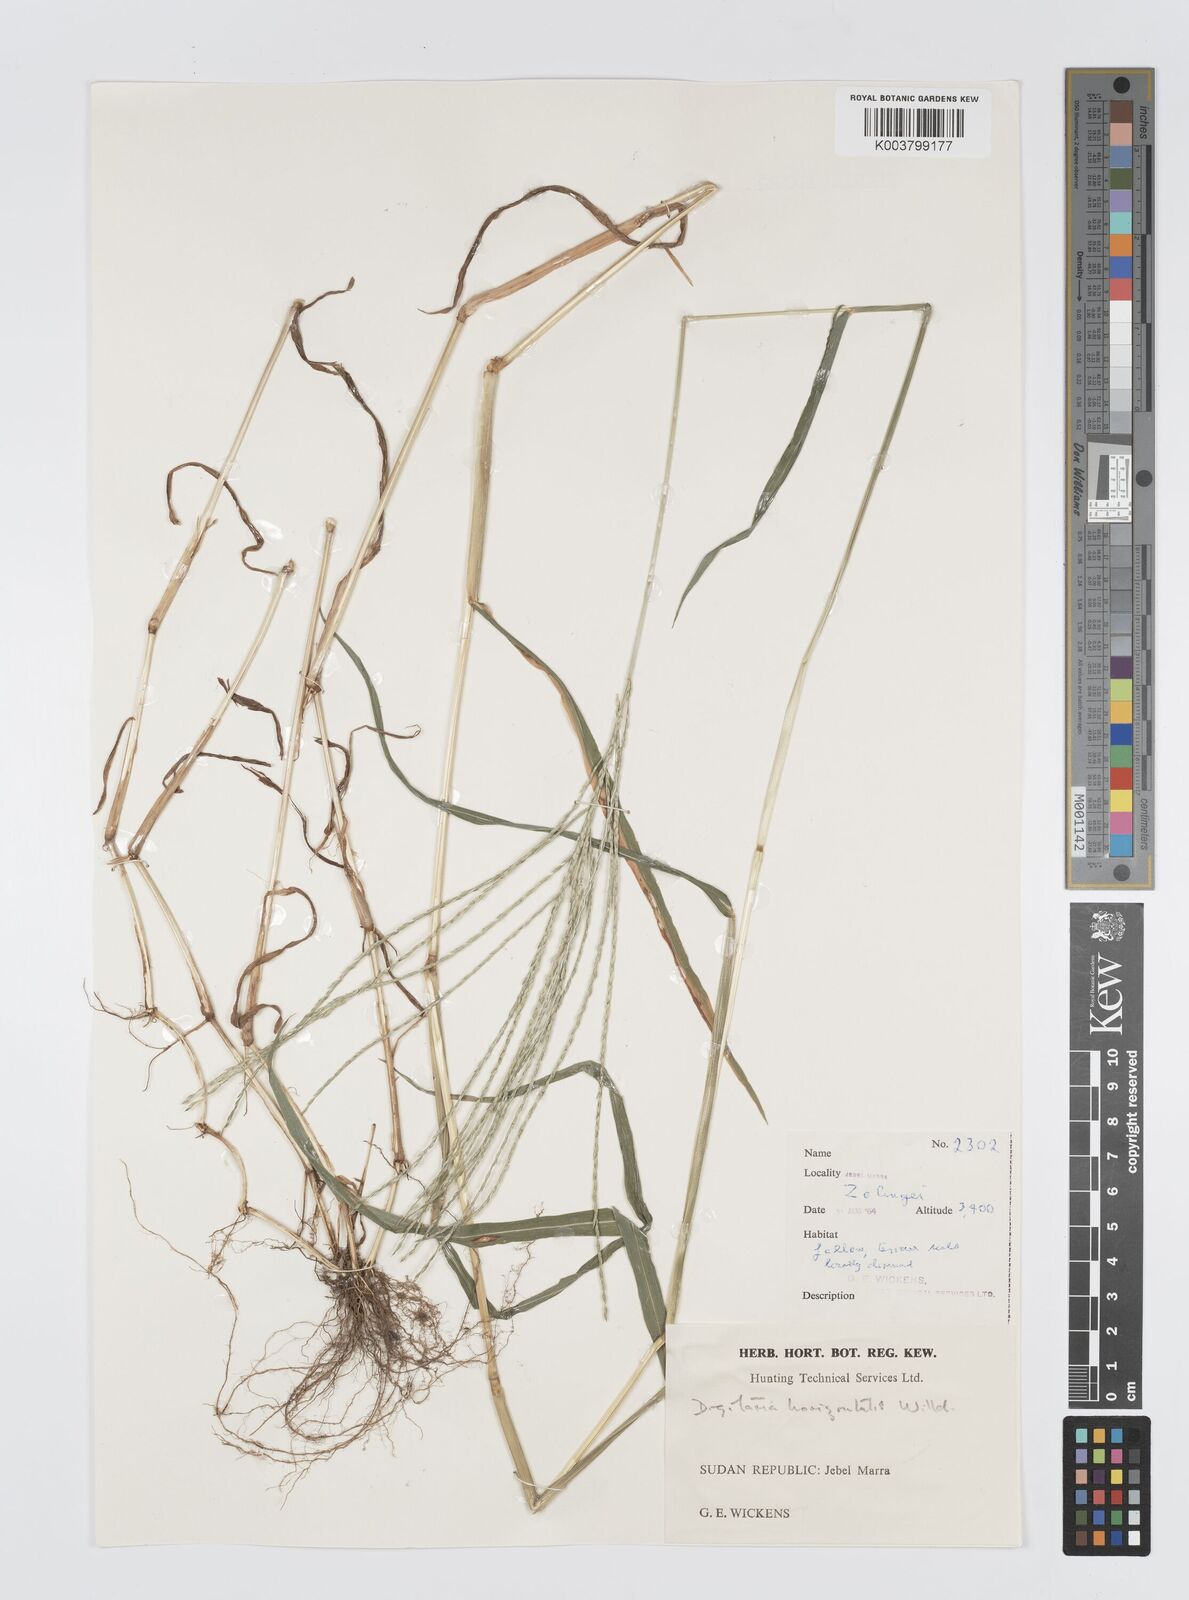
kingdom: Plantae
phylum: Tracheophyta
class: Liliopsida
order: Poales
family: Poaceae
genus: Digitaria
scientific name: Digitaria sanguinalis
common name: Hairy crabgrass
